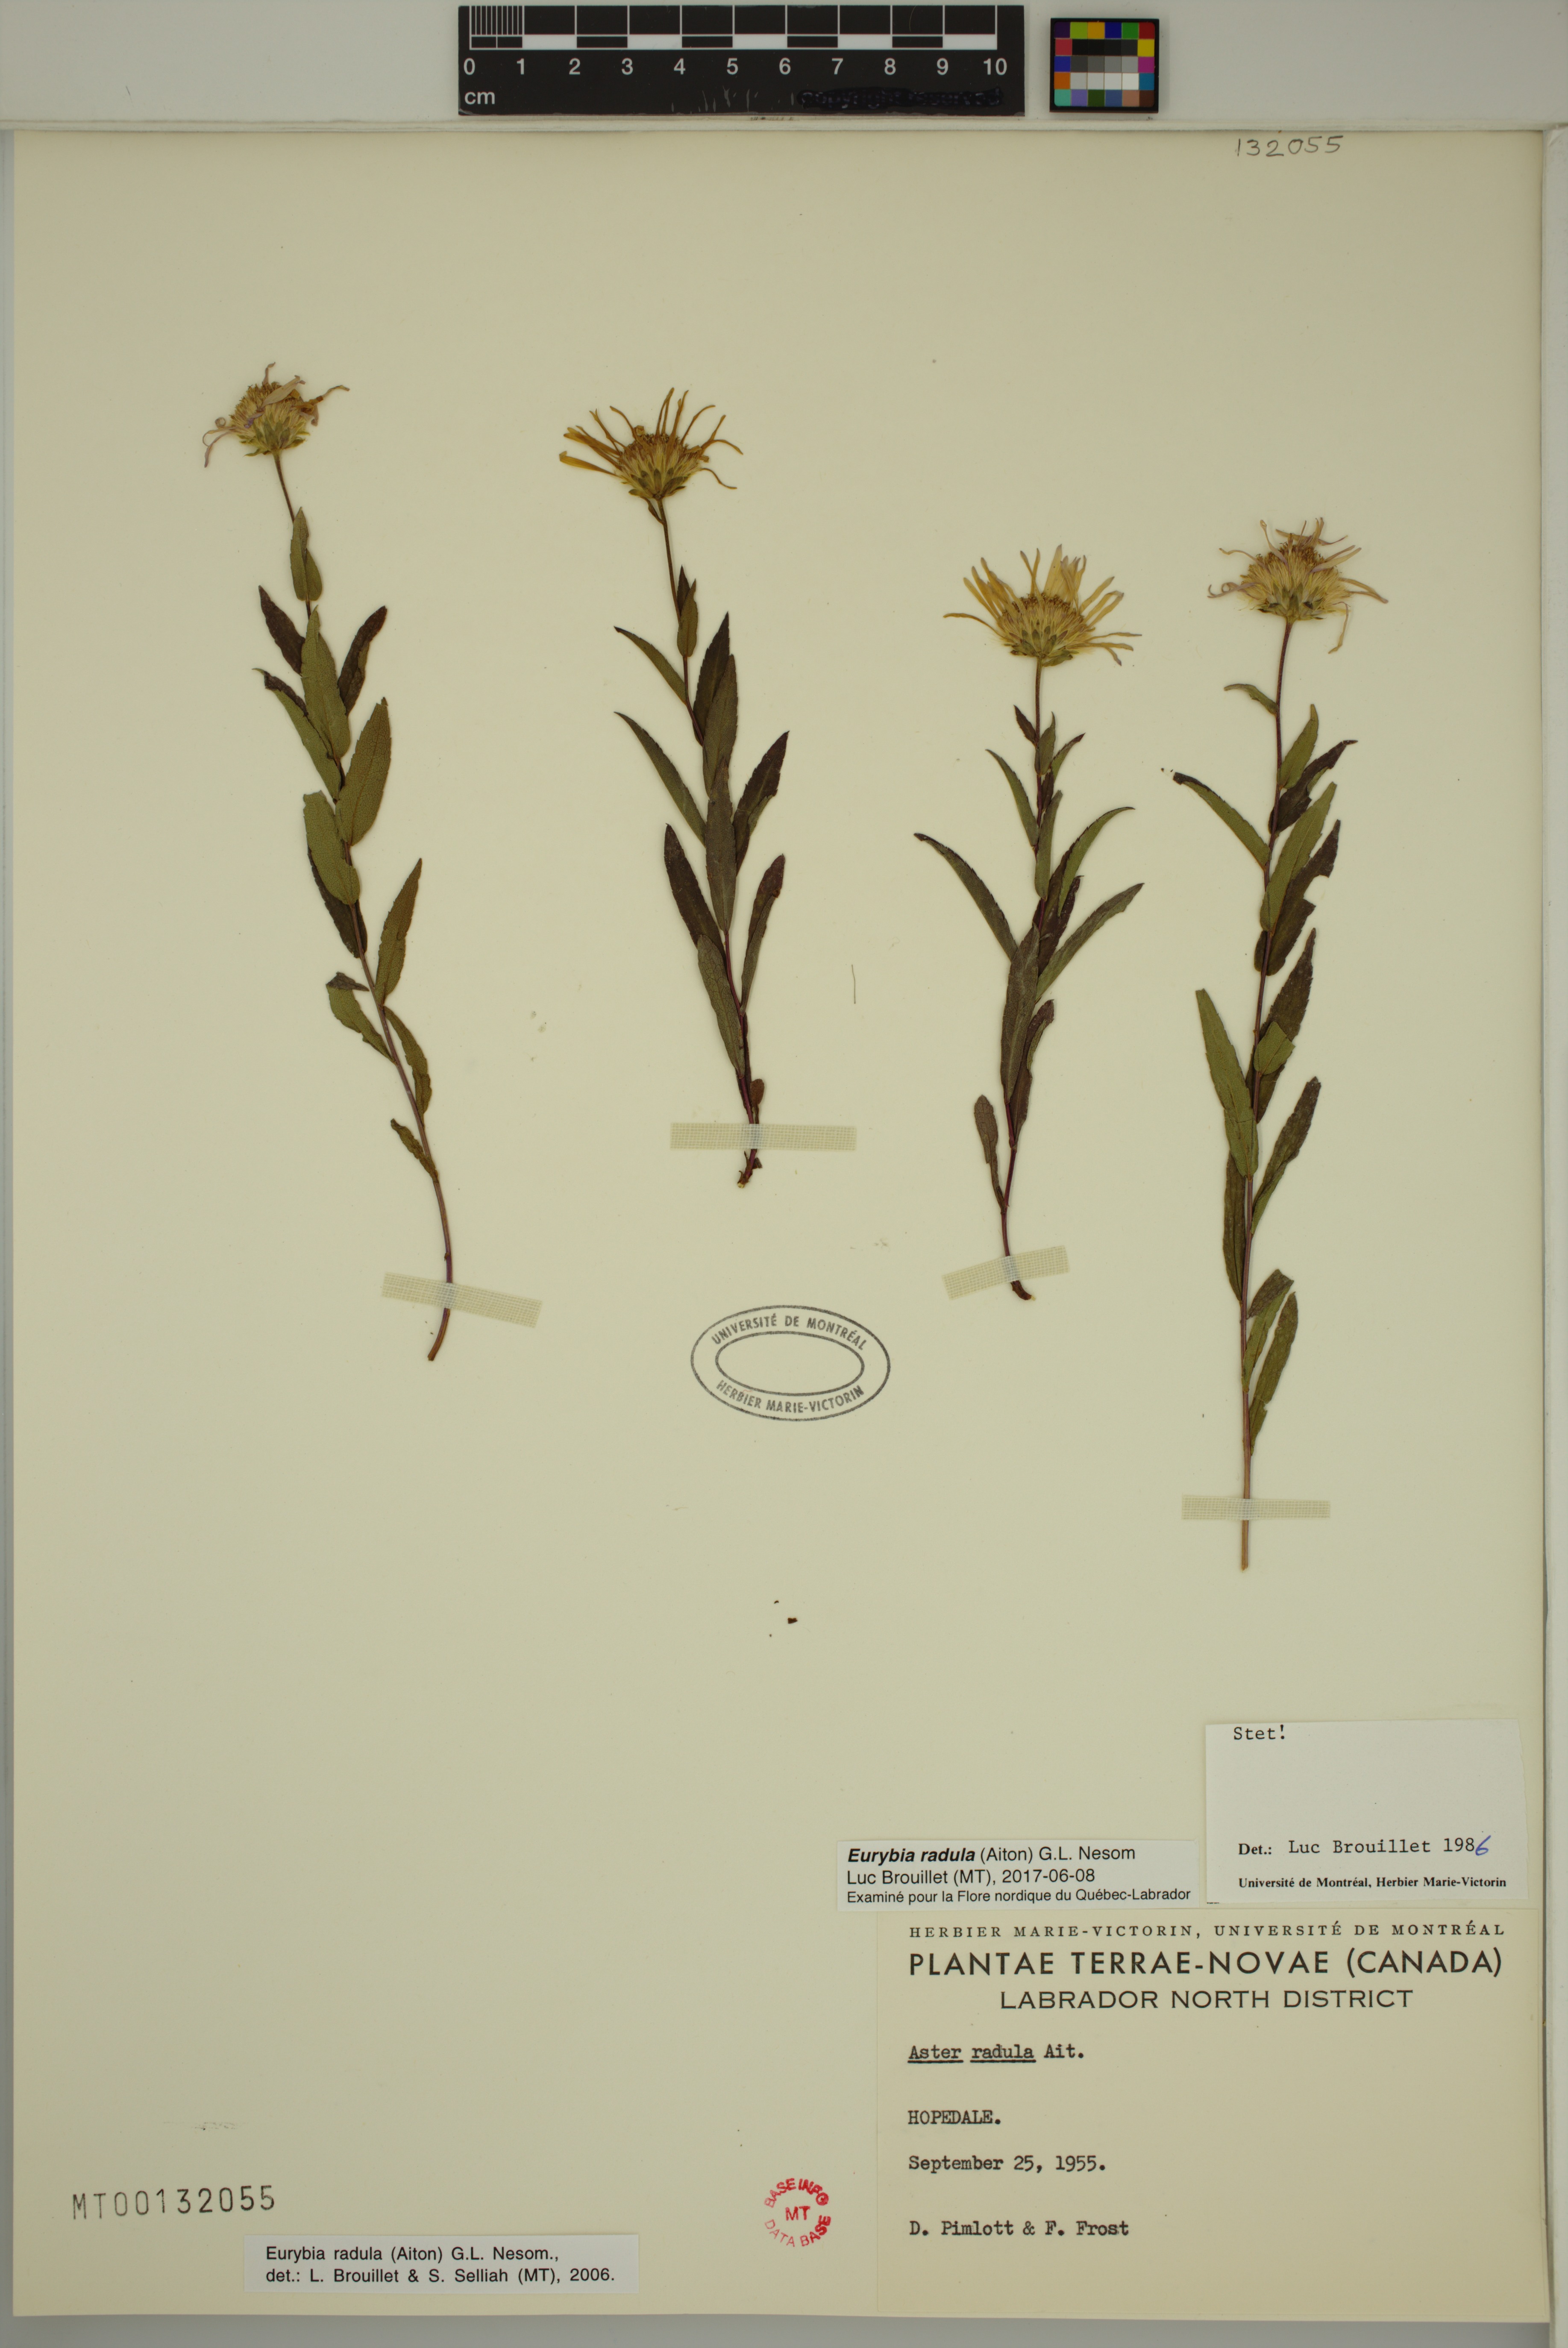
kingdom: Plantae
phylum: Tracheophyta
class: Magnoliopsida
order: Asterales
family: Asteraceae
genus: Eurybia
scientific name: Eurybia radula
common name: Low rough aster
